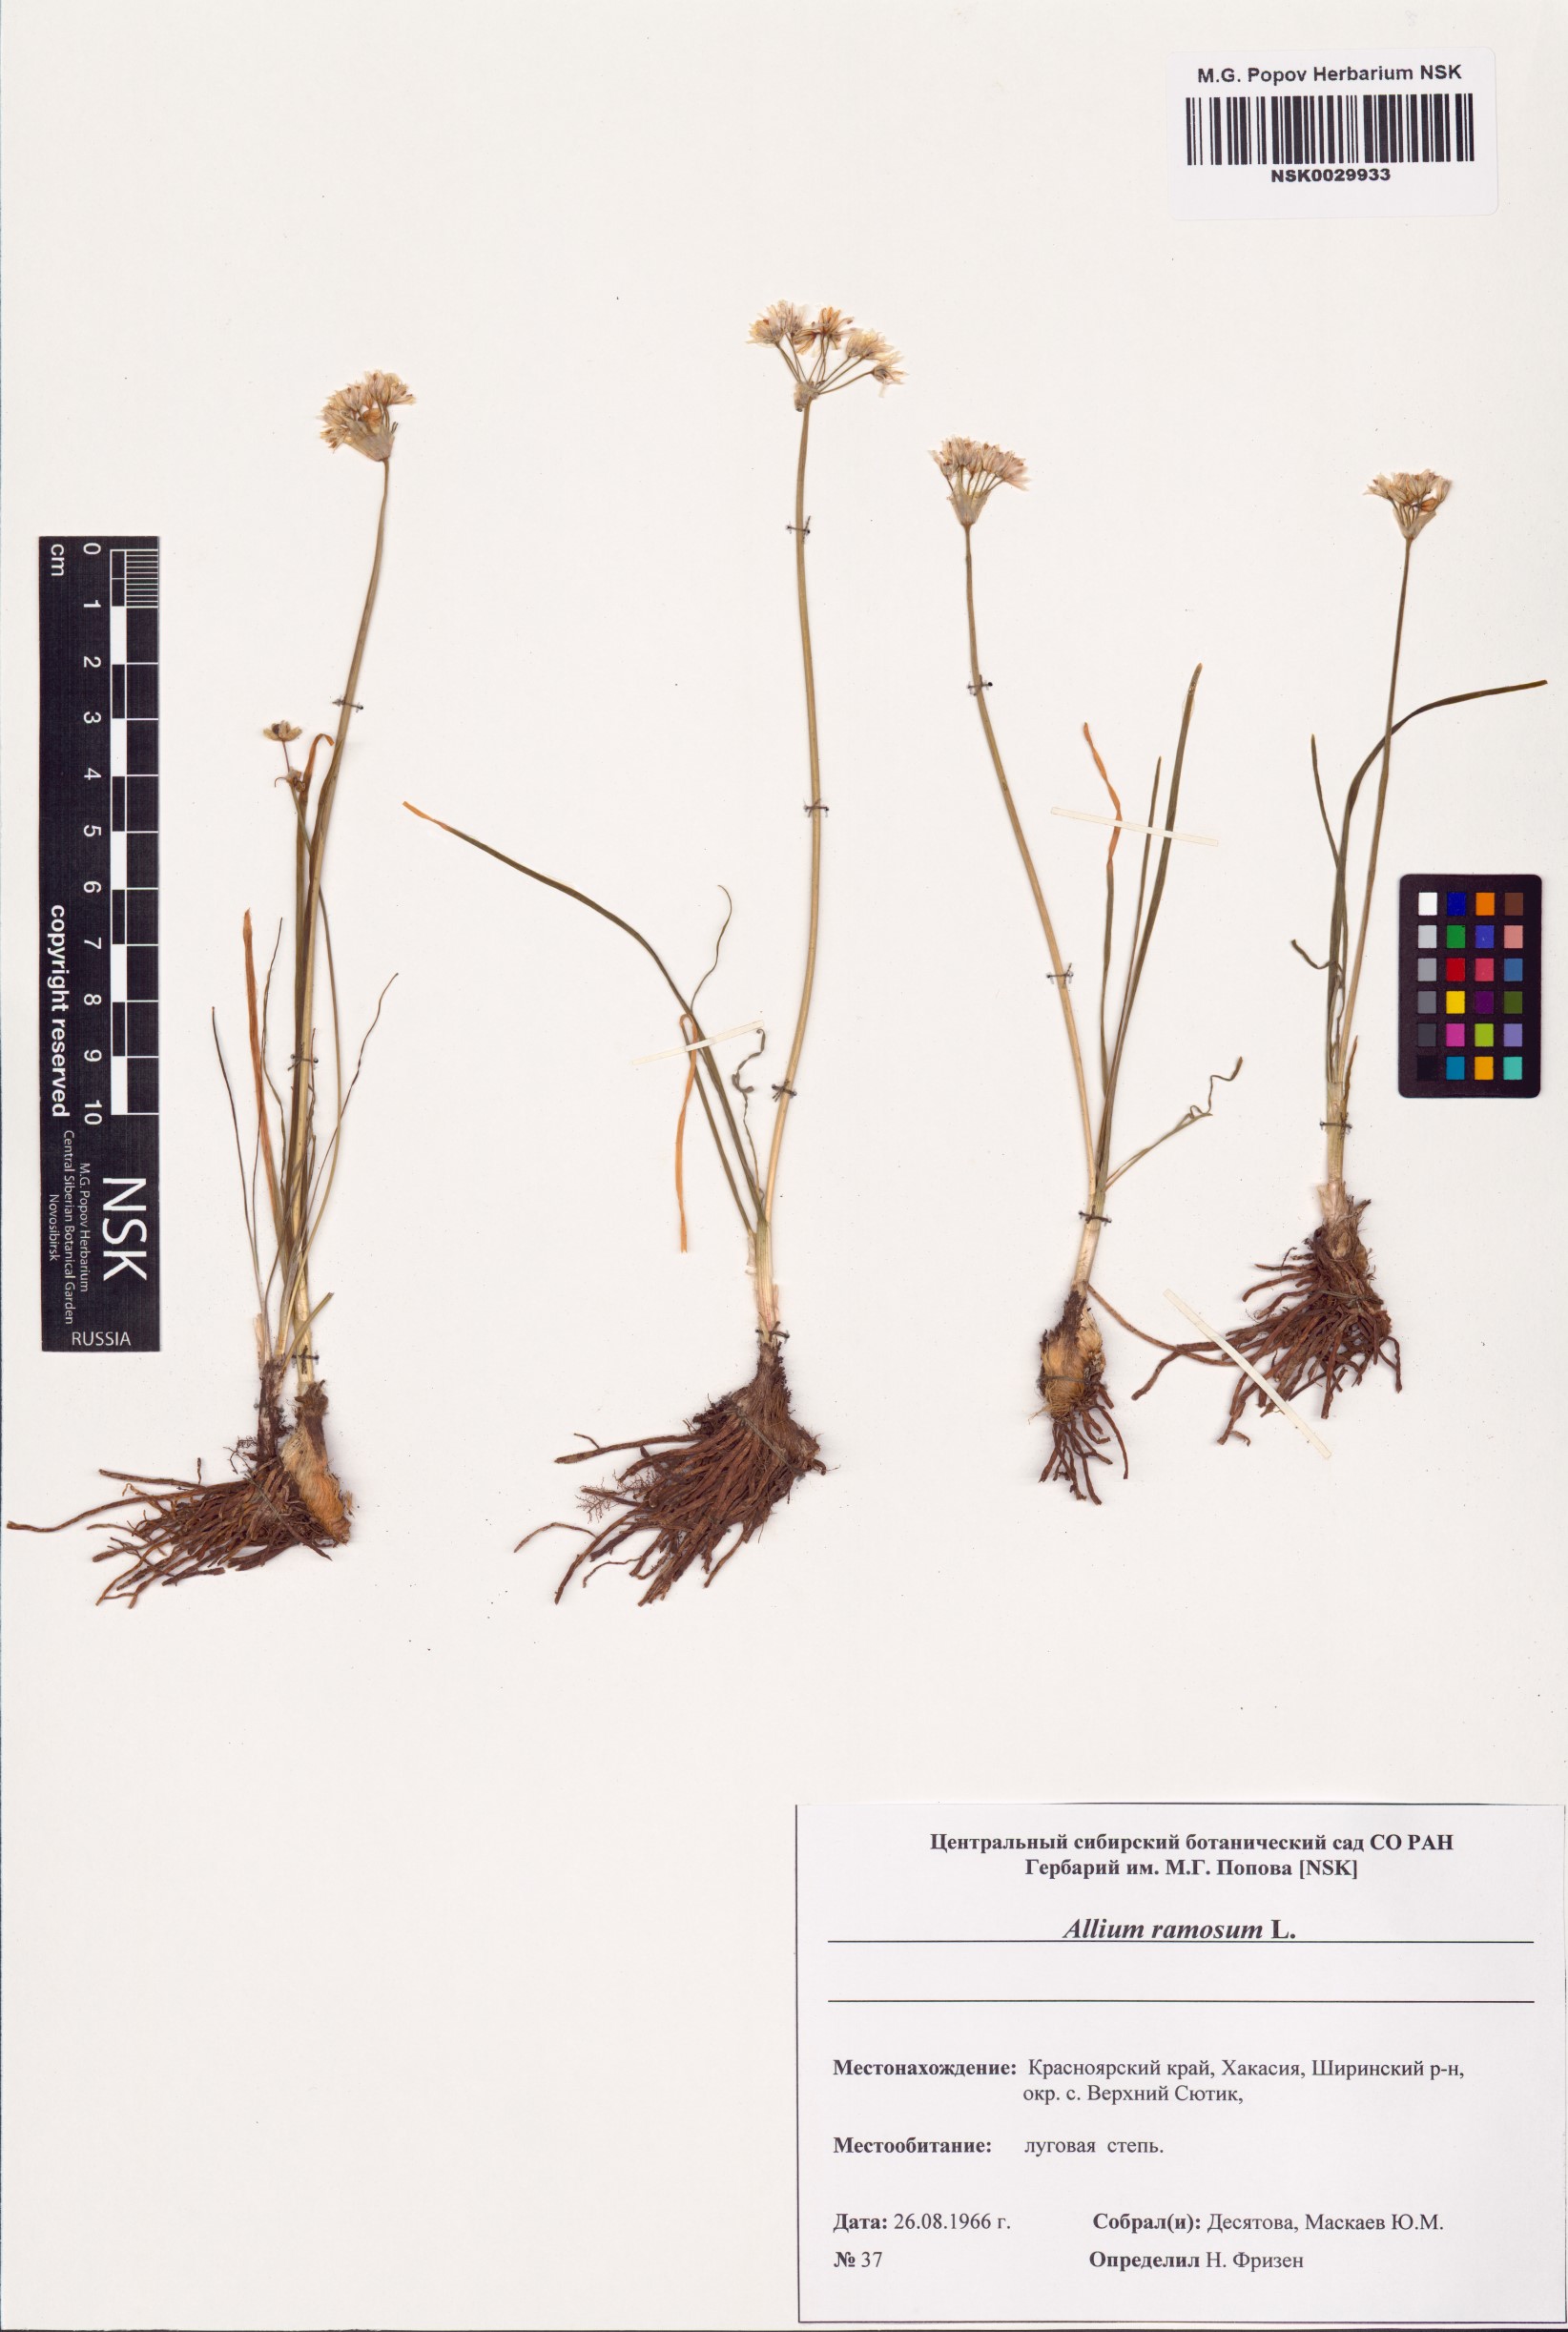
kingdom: Plantae
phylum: Tracheophyta
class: Liliopsida
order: Asparagales
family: Amaryllidaceae
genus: Allium
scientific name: Allium ramosum
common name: Fragrant garlic
